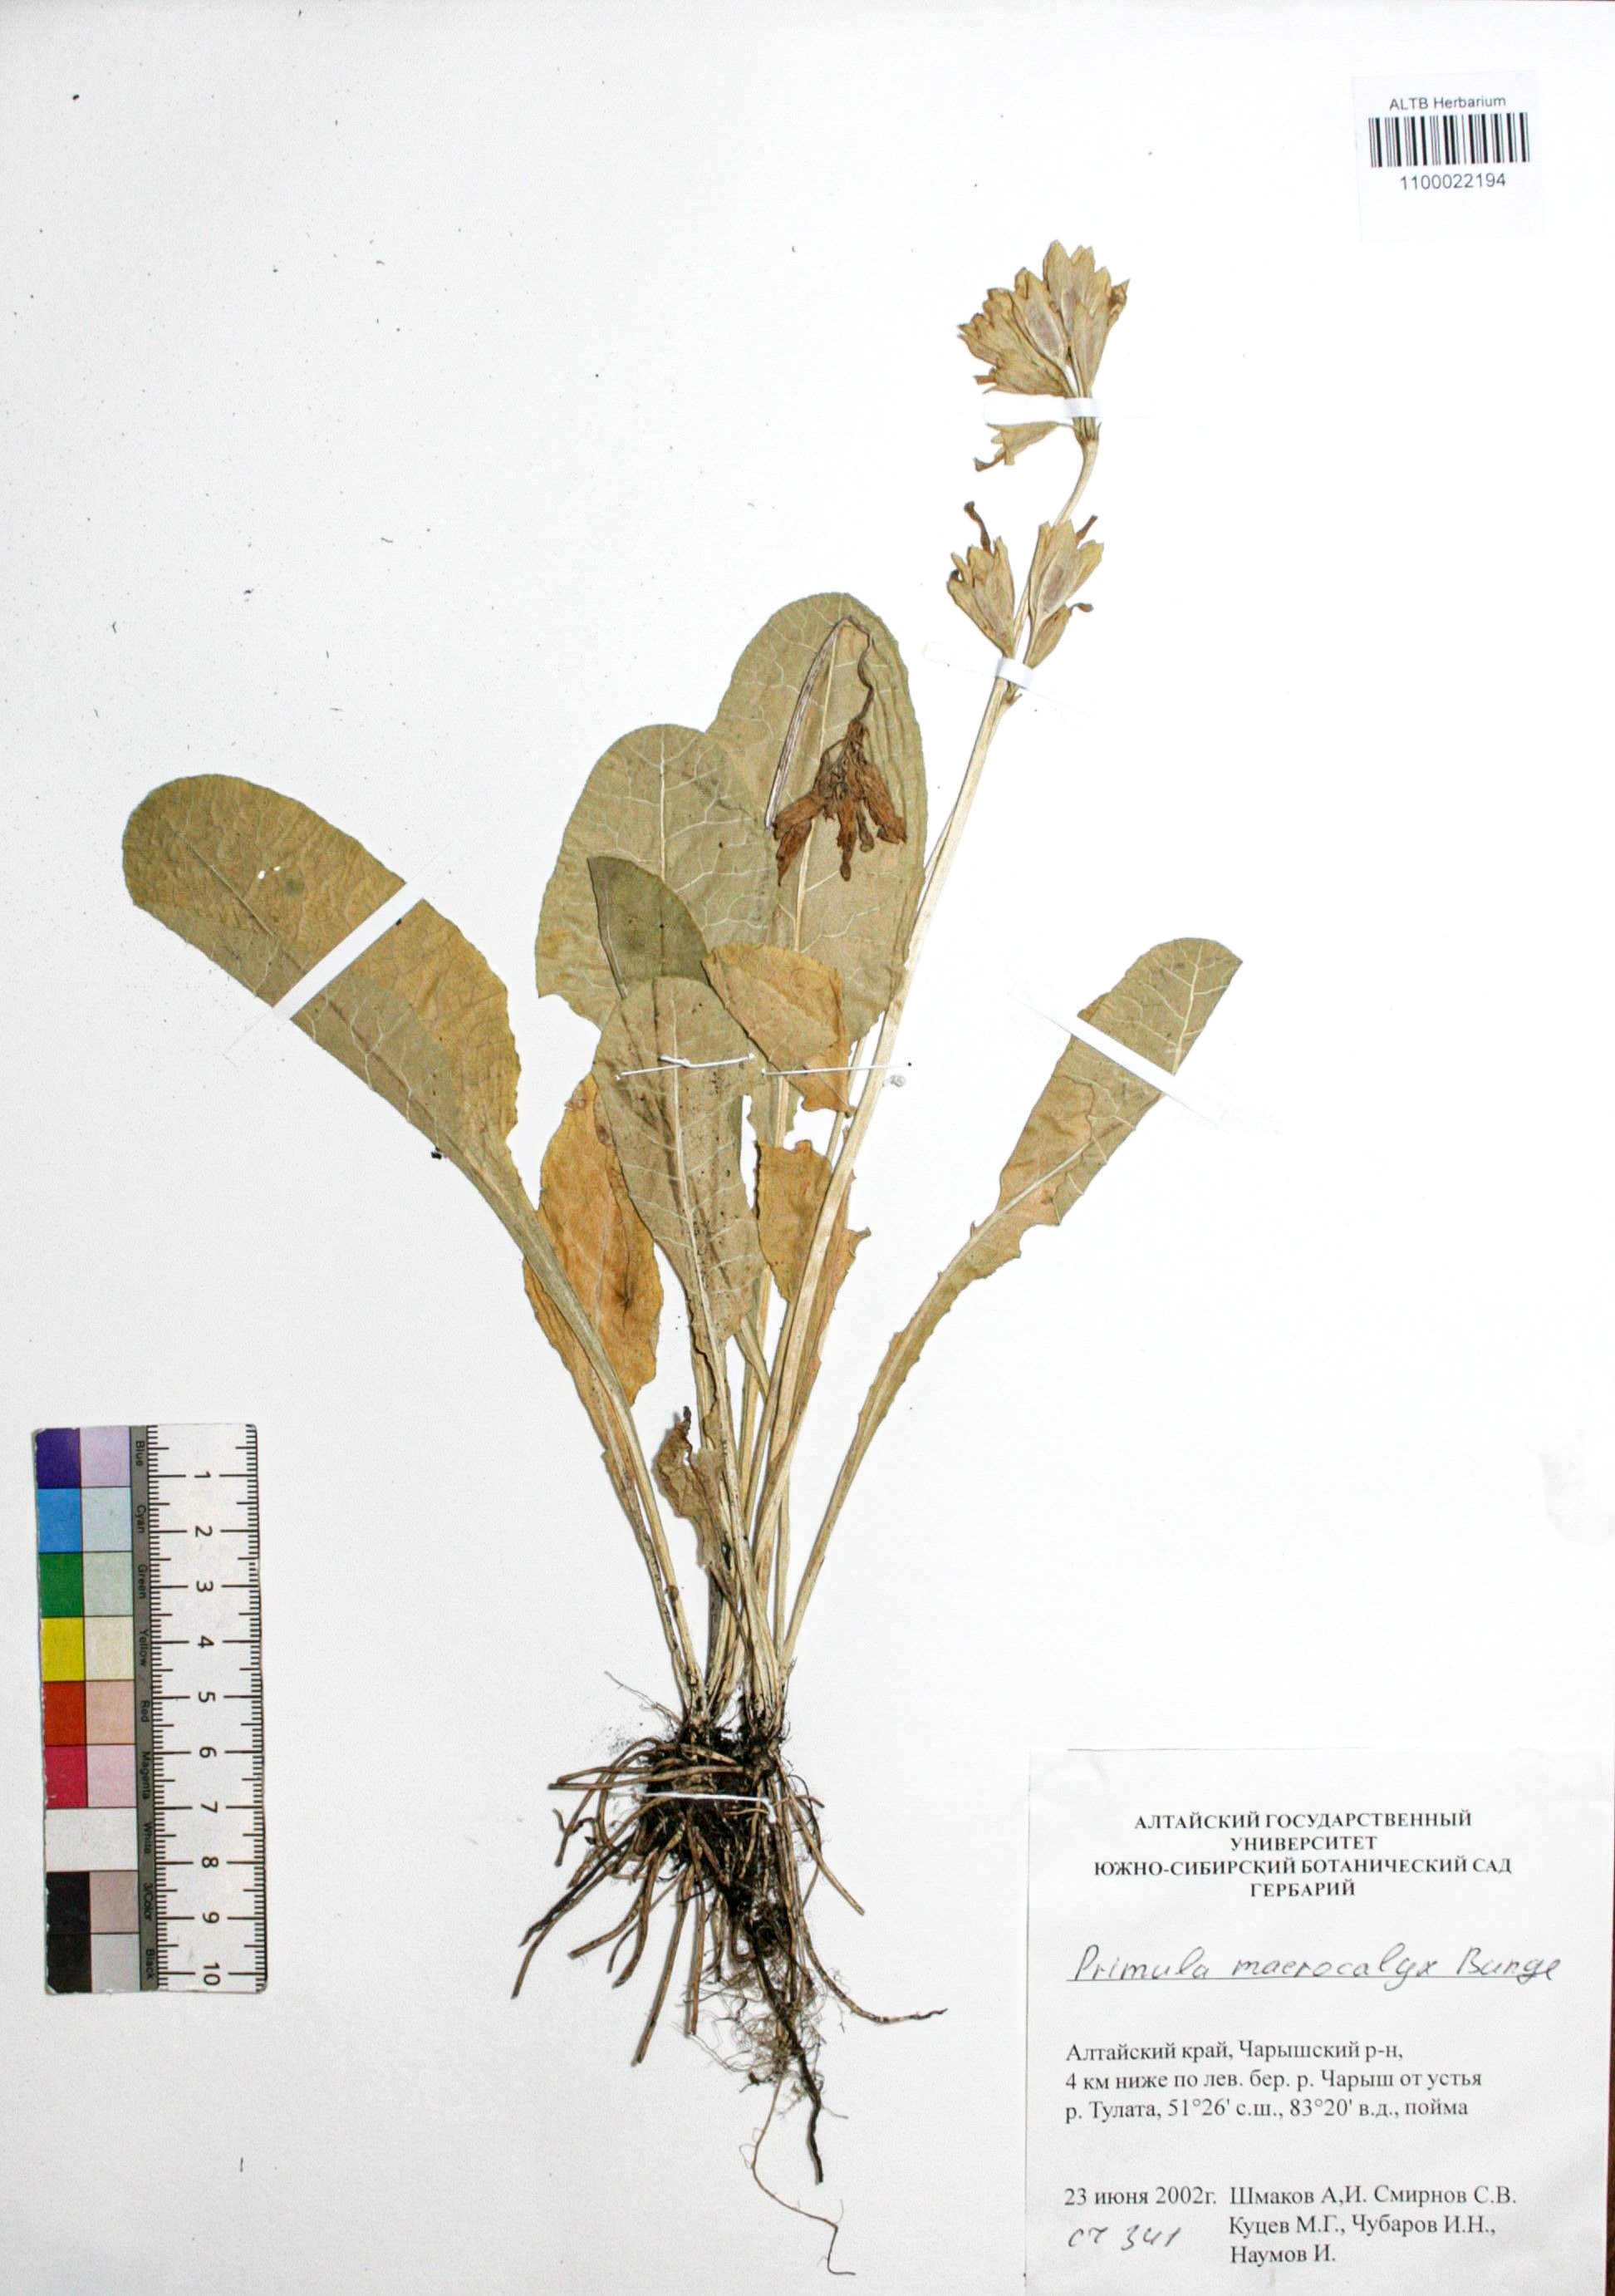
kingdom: Plantae
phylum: Tracheophyta
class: Magnoliopsida
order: Ericales
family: Primulaceae
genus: Primula
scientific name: Primula veris
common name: Cowslip
